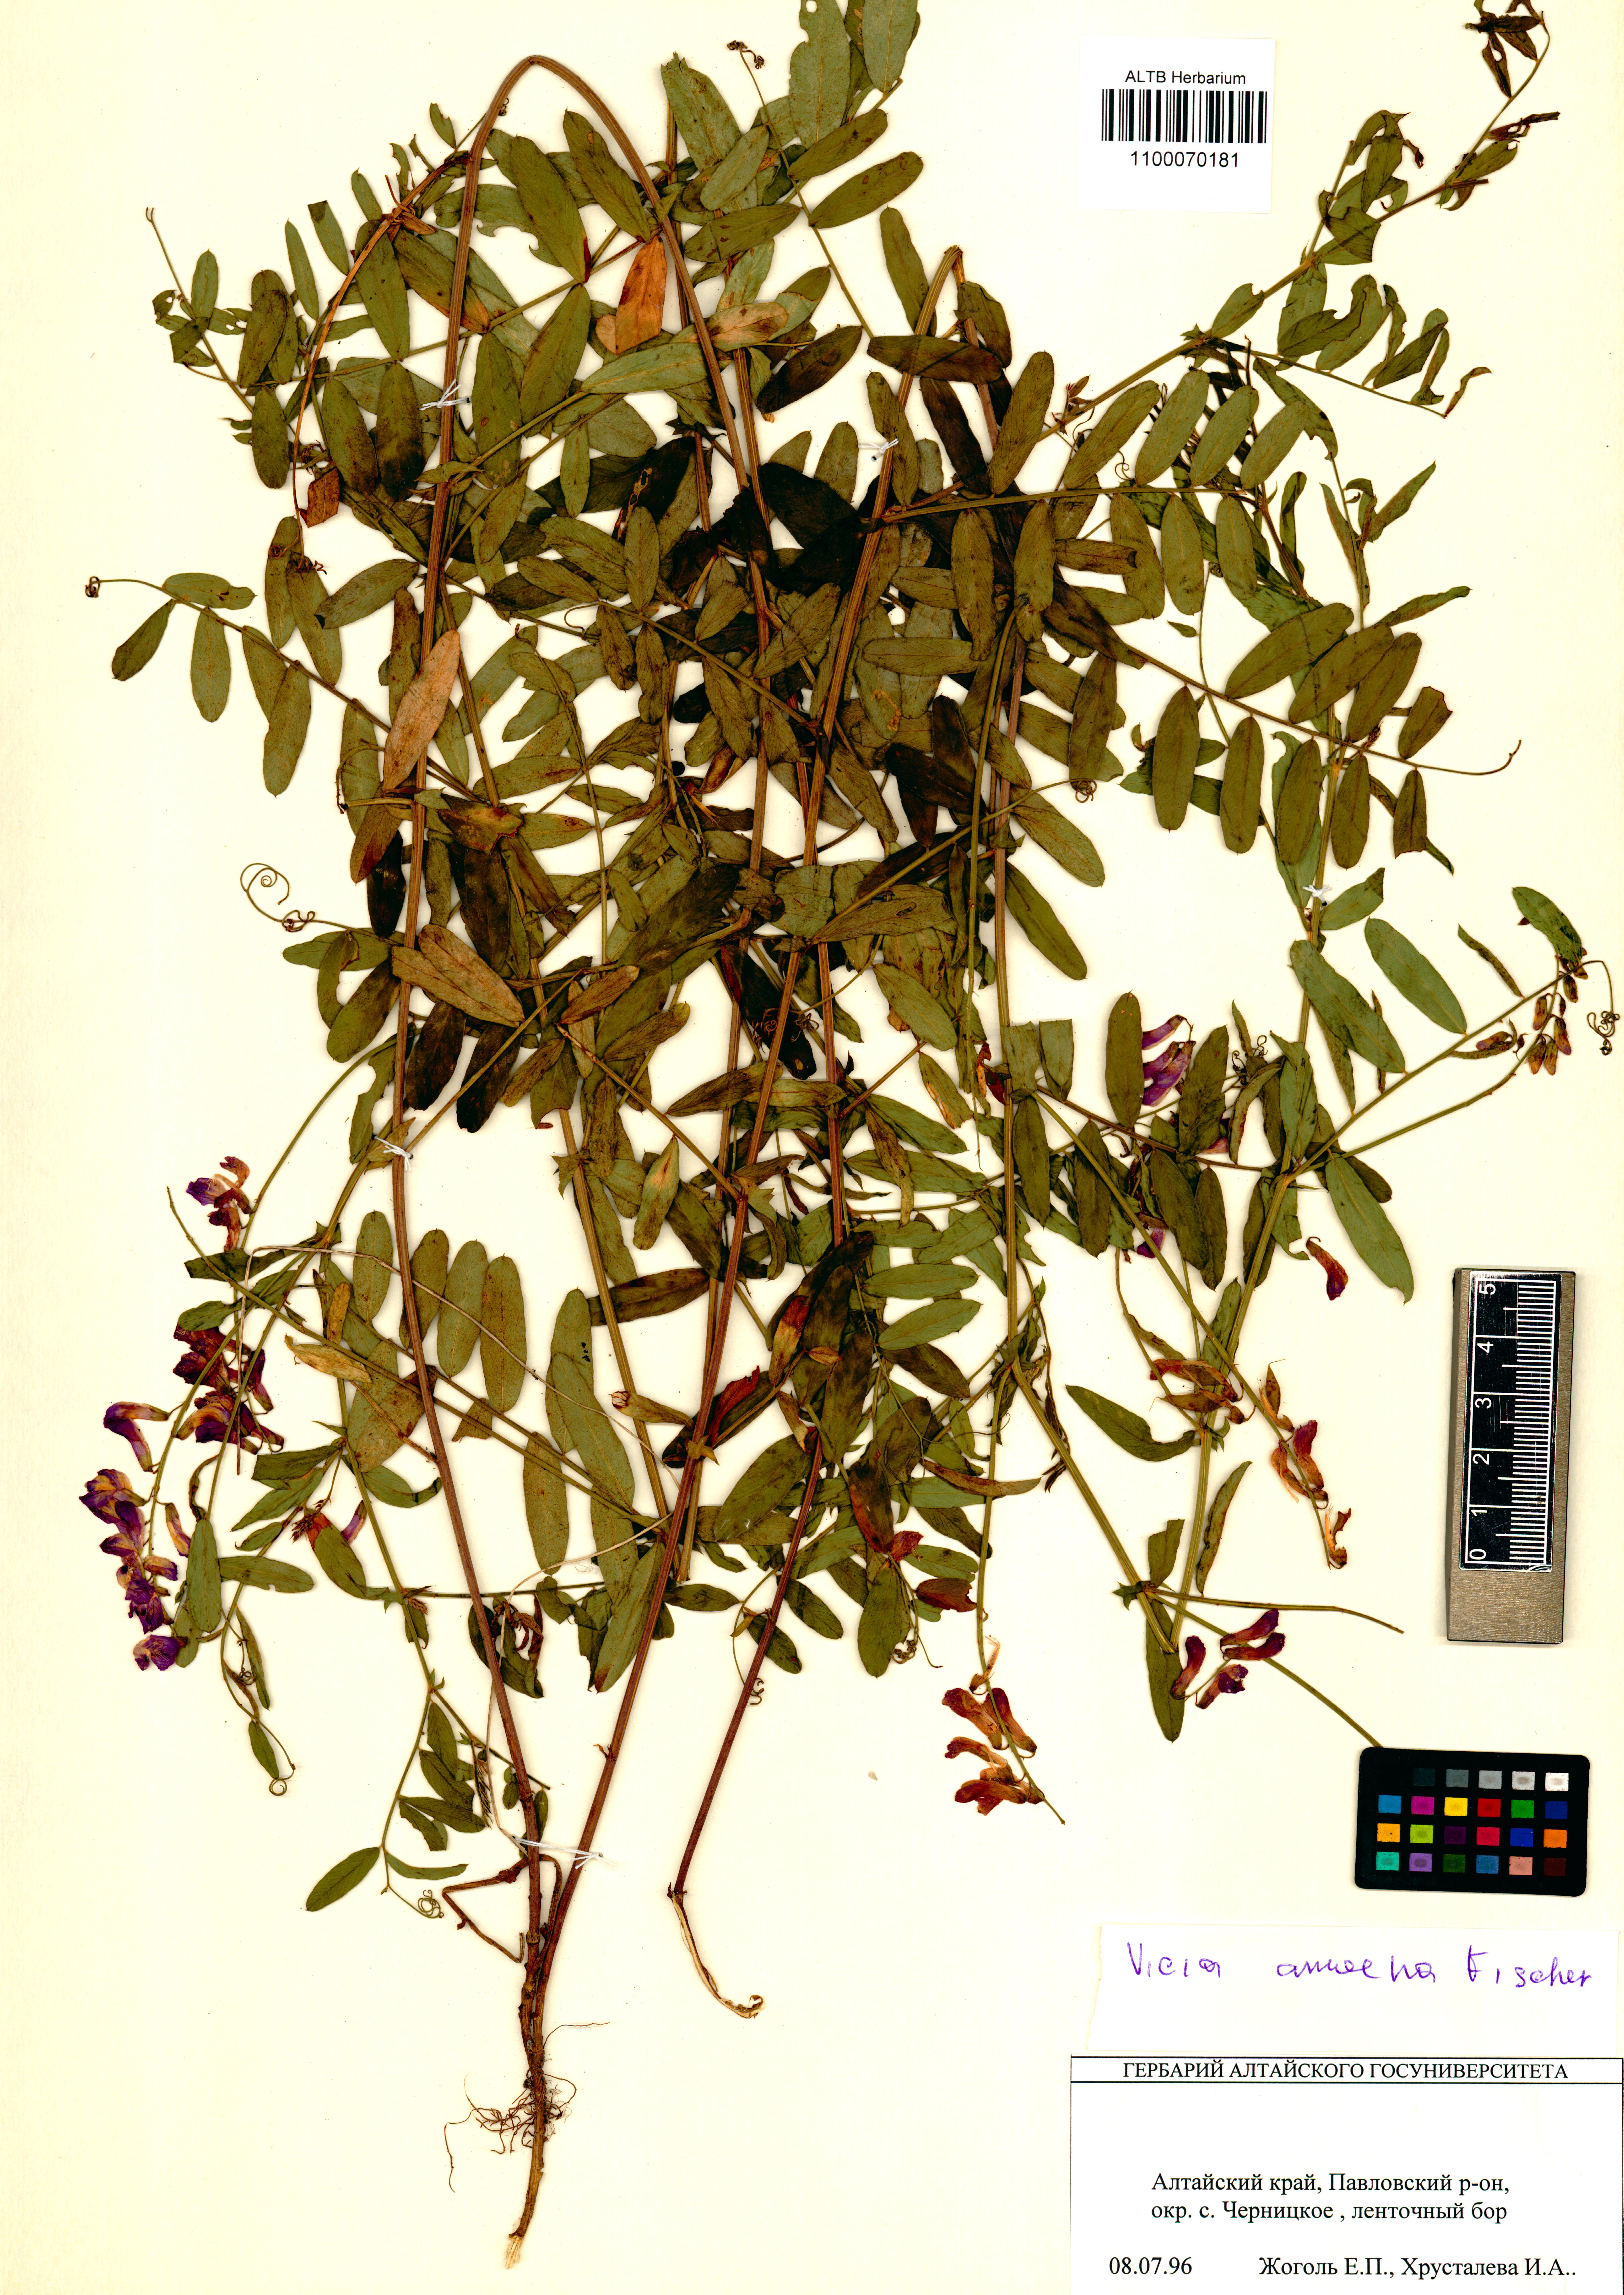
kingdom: Plantae
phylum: Tracheophyta
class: Magnoliopsida
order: Fabales
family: Fabaceae
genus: Vicia
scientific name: Vicia amoena
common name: Cheder ebs
